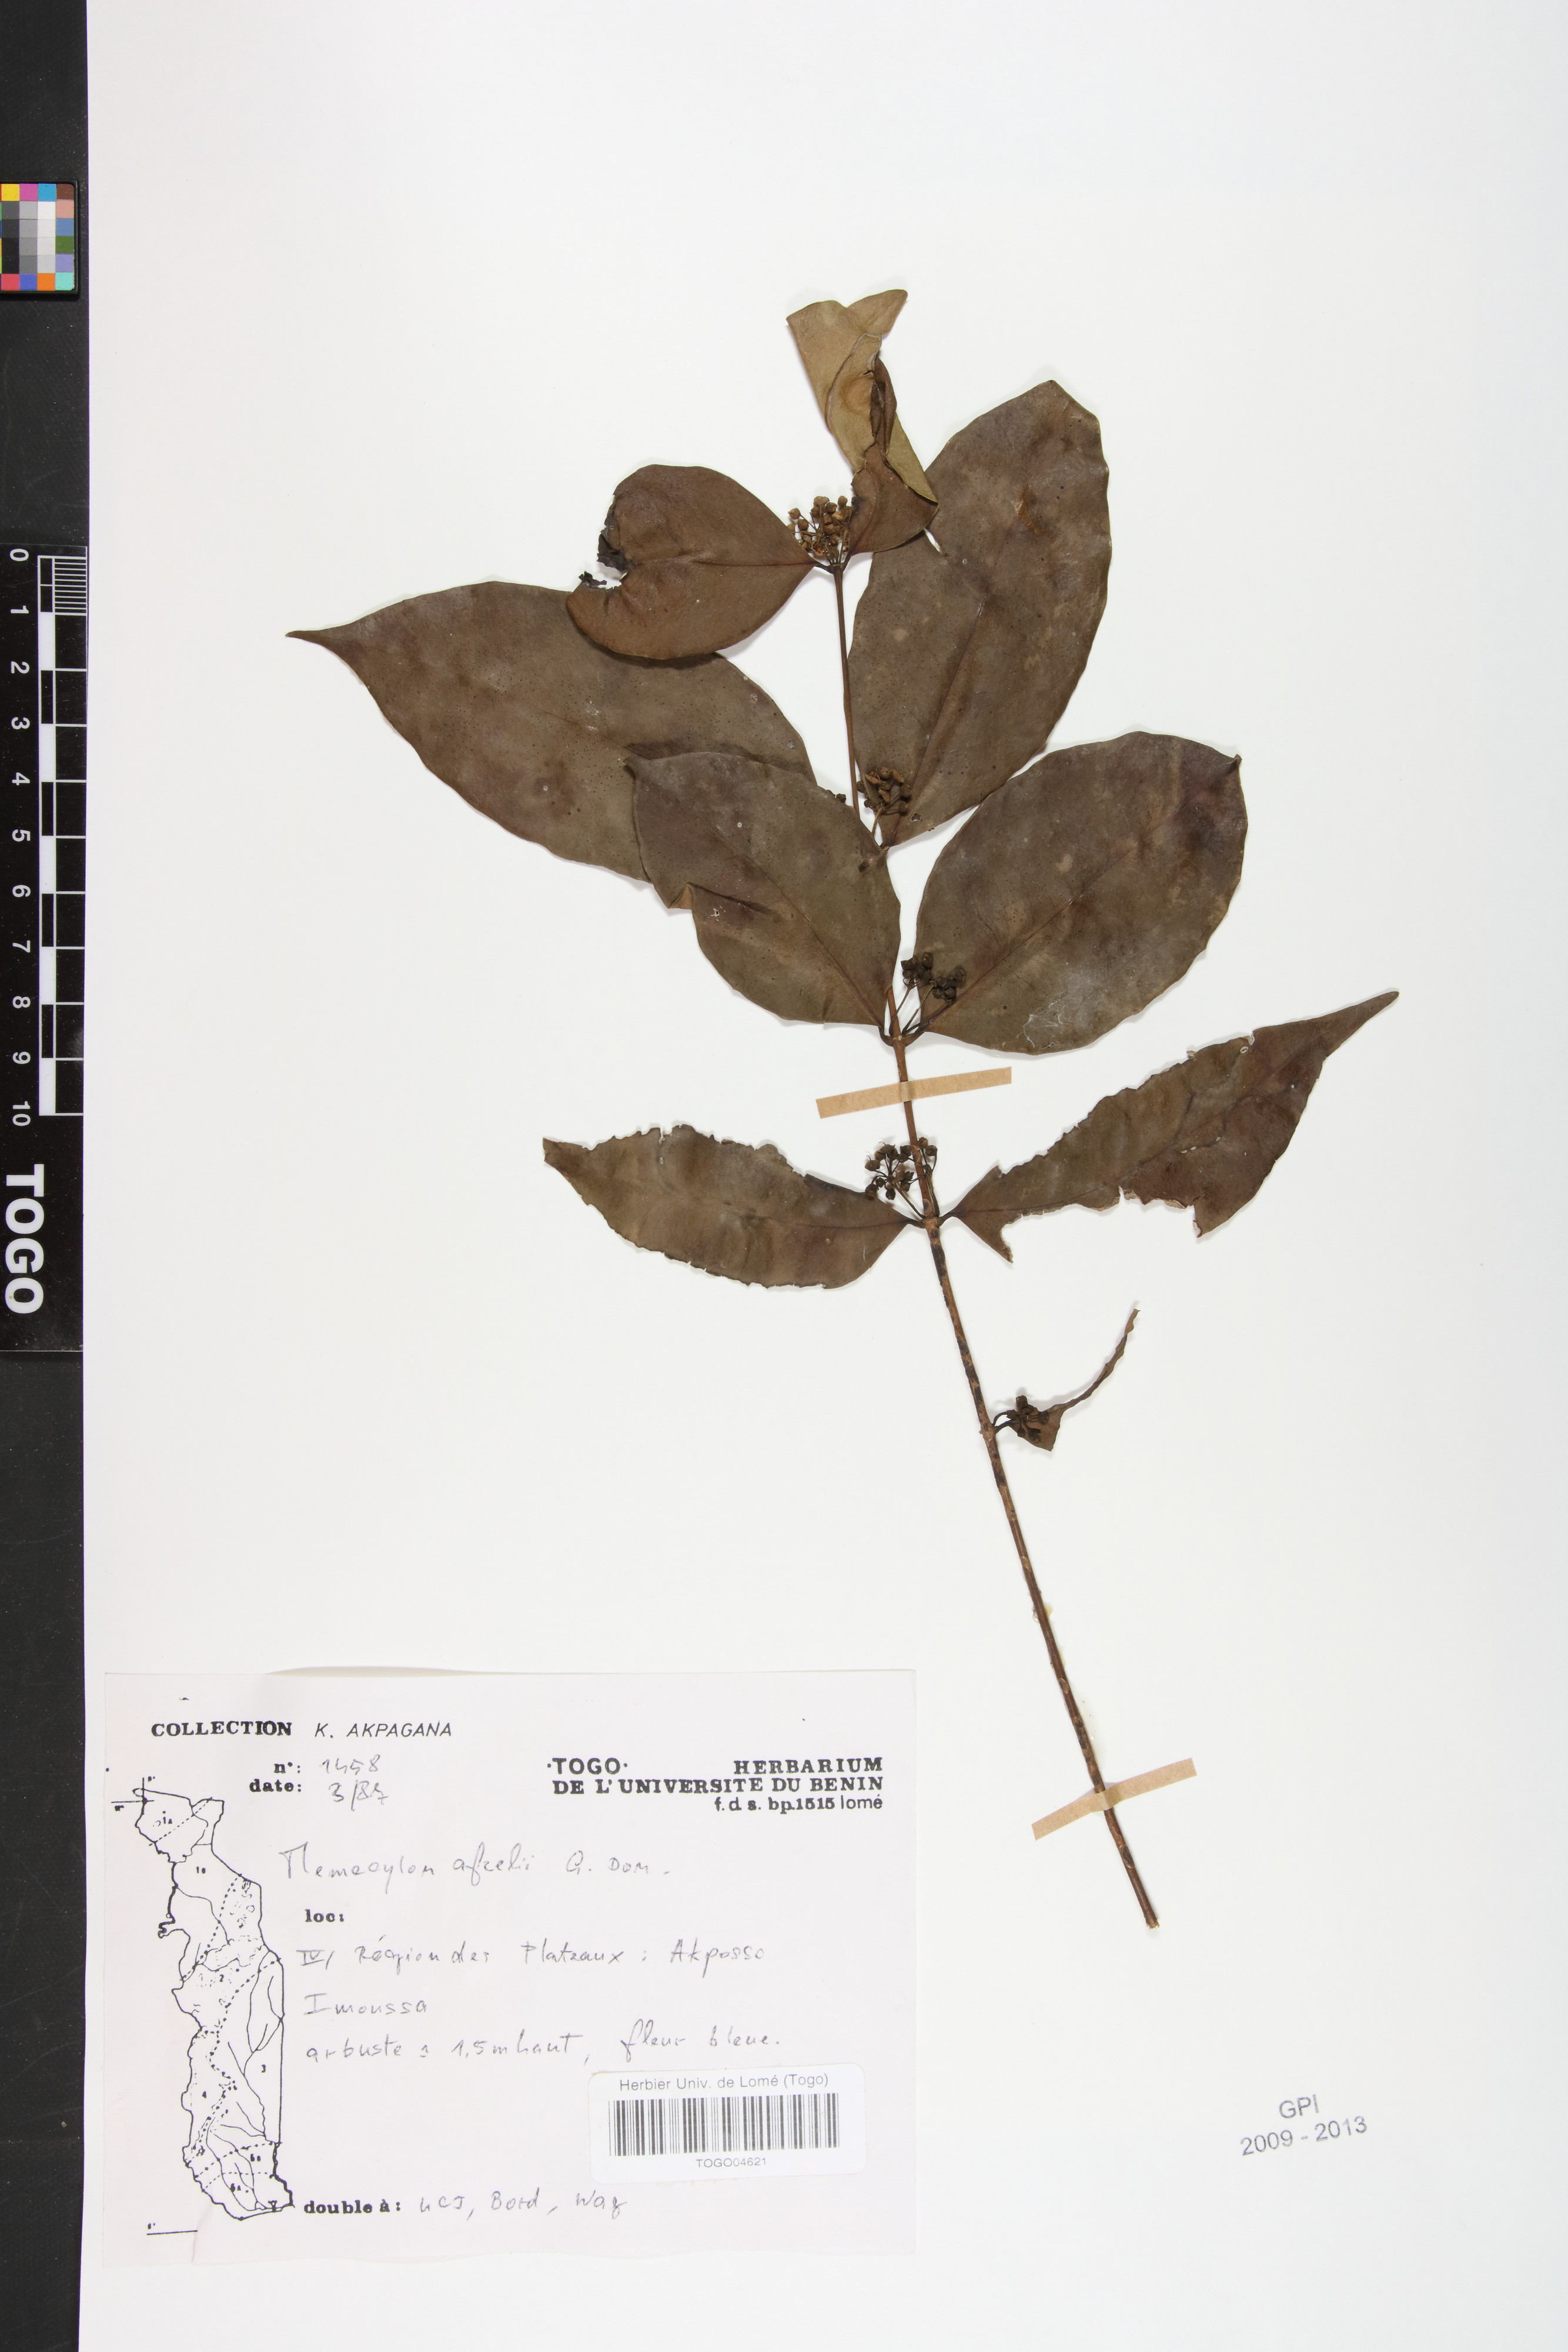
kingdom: Plantae
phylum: Tracheophyta
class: Magnoliopsida
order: Myrtales
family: Melastomataceae
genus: Memecylon
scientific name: Memecylon afzelii
